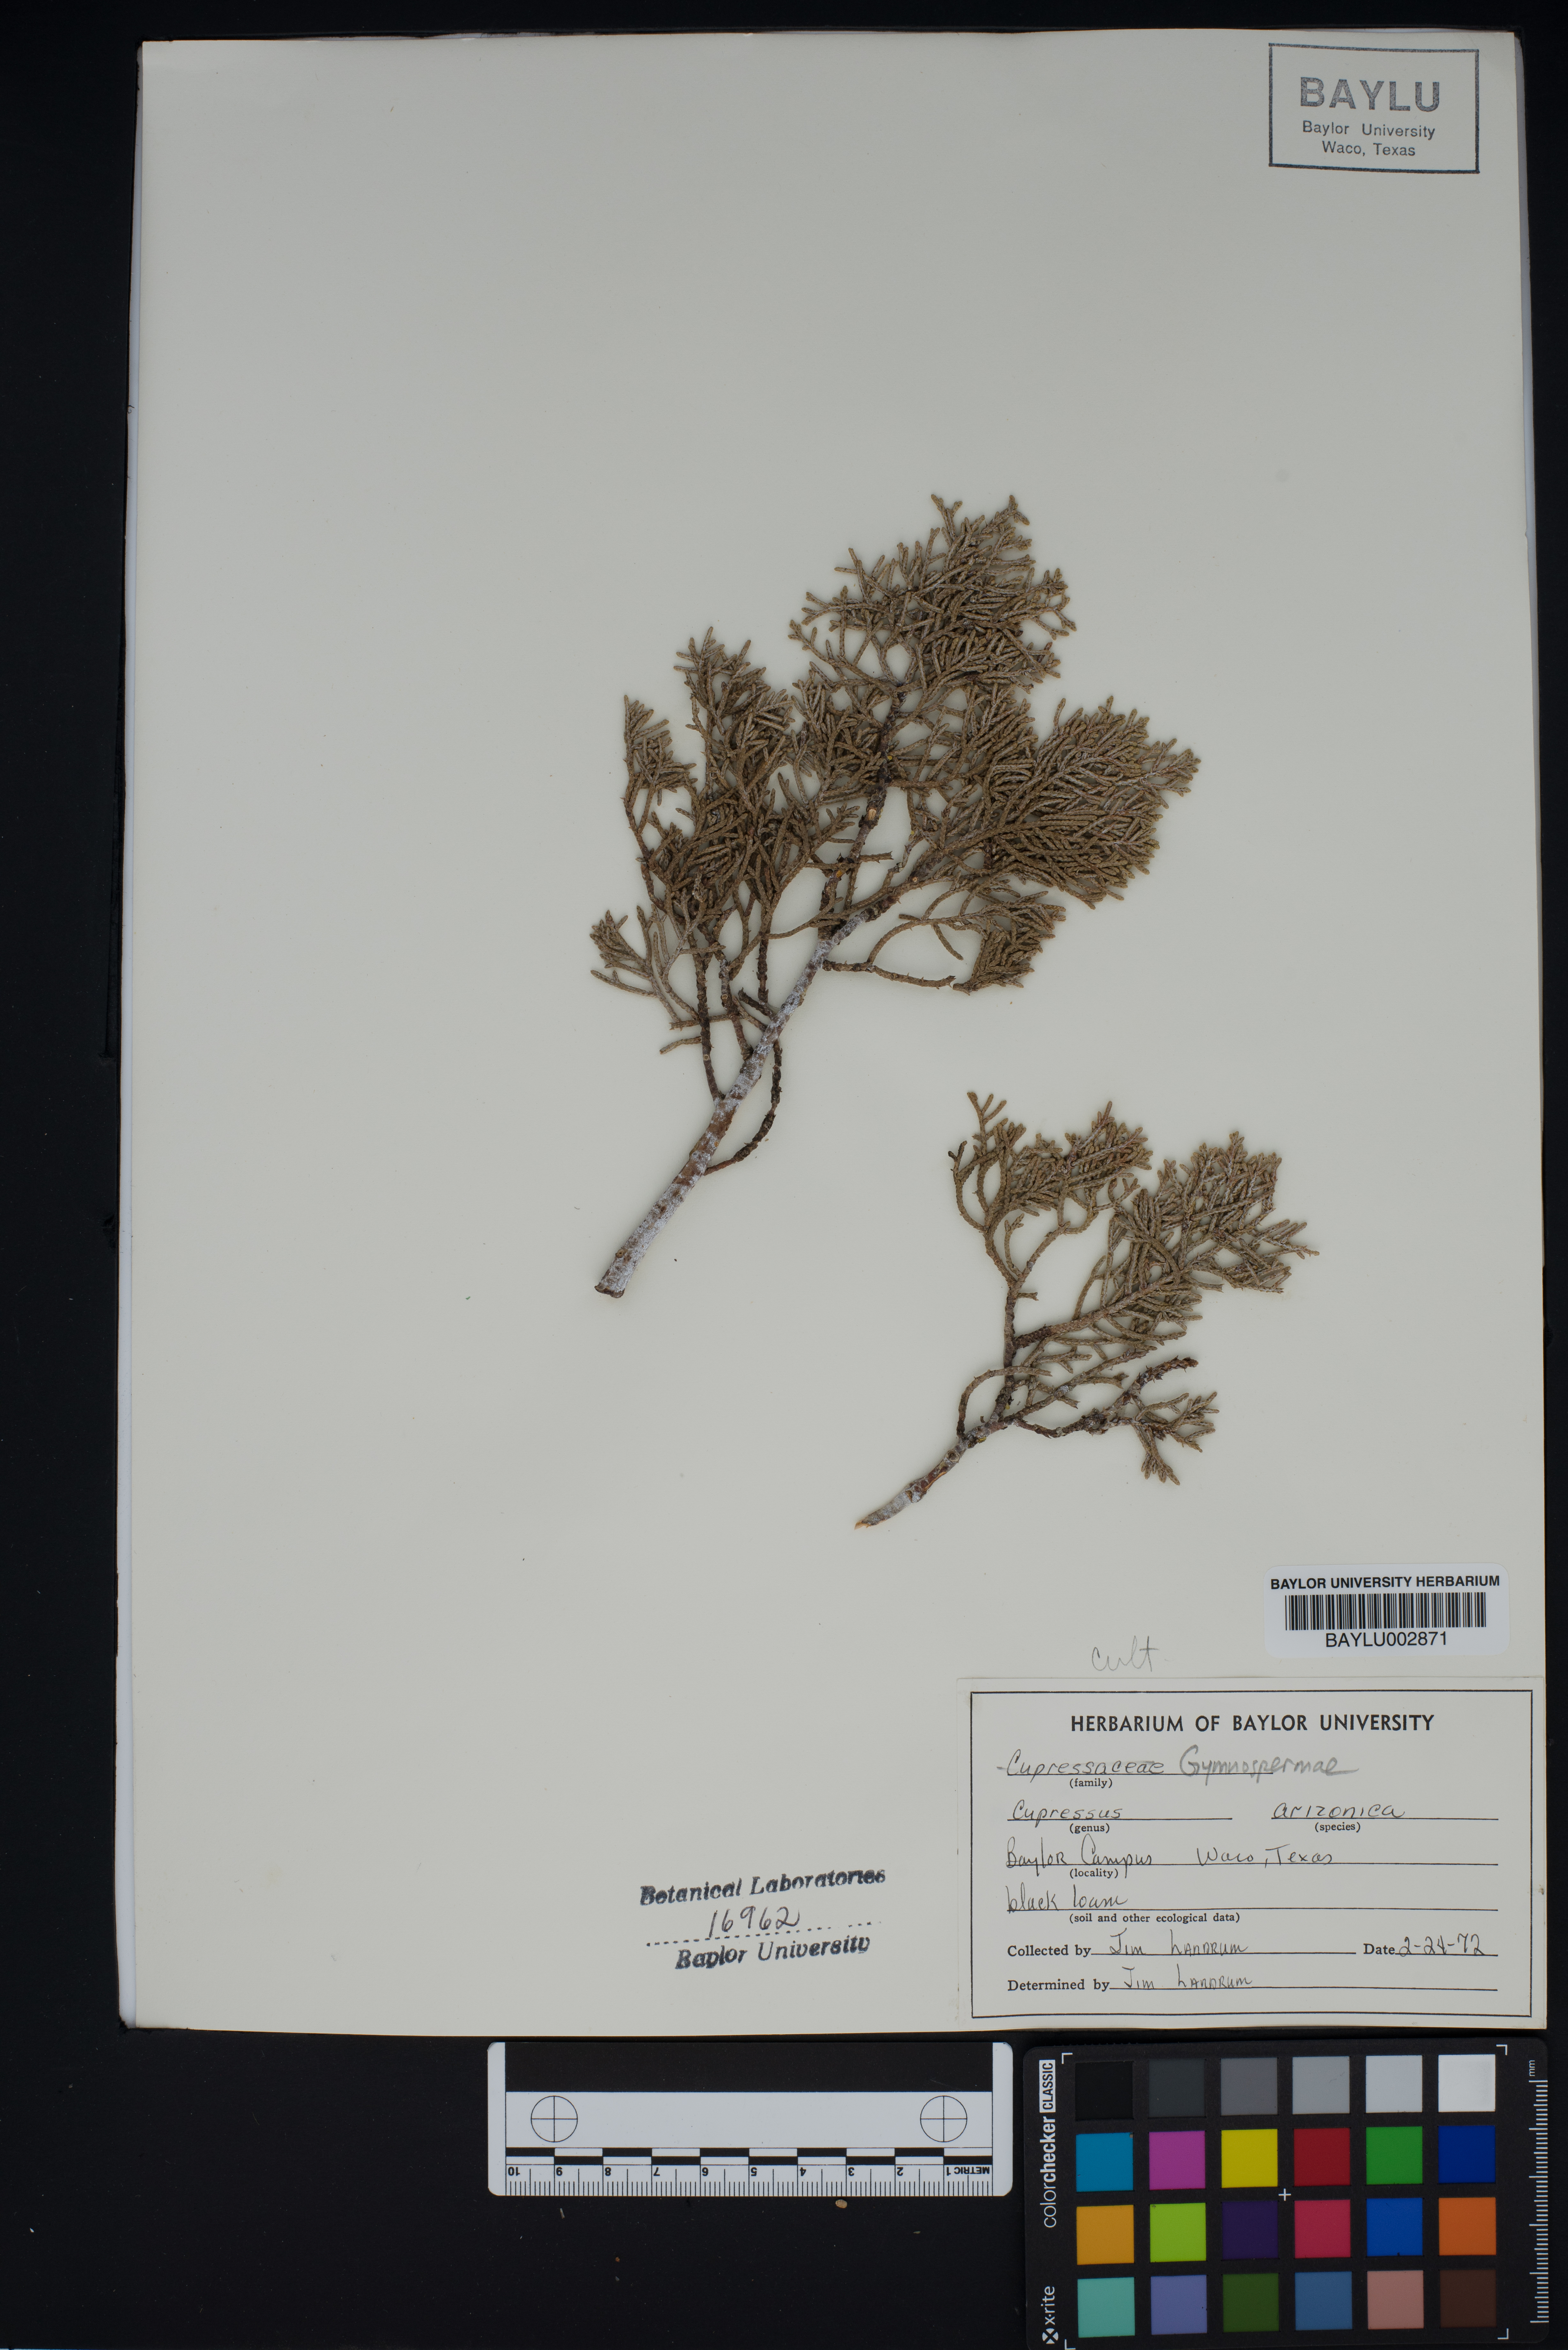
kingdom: Plantae
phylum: Tracheophyta
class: Pinopsida
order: Pinales
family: Cupressaceae
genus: Cupressus
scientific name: Cupressus arizonica
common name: Arizona cypress
